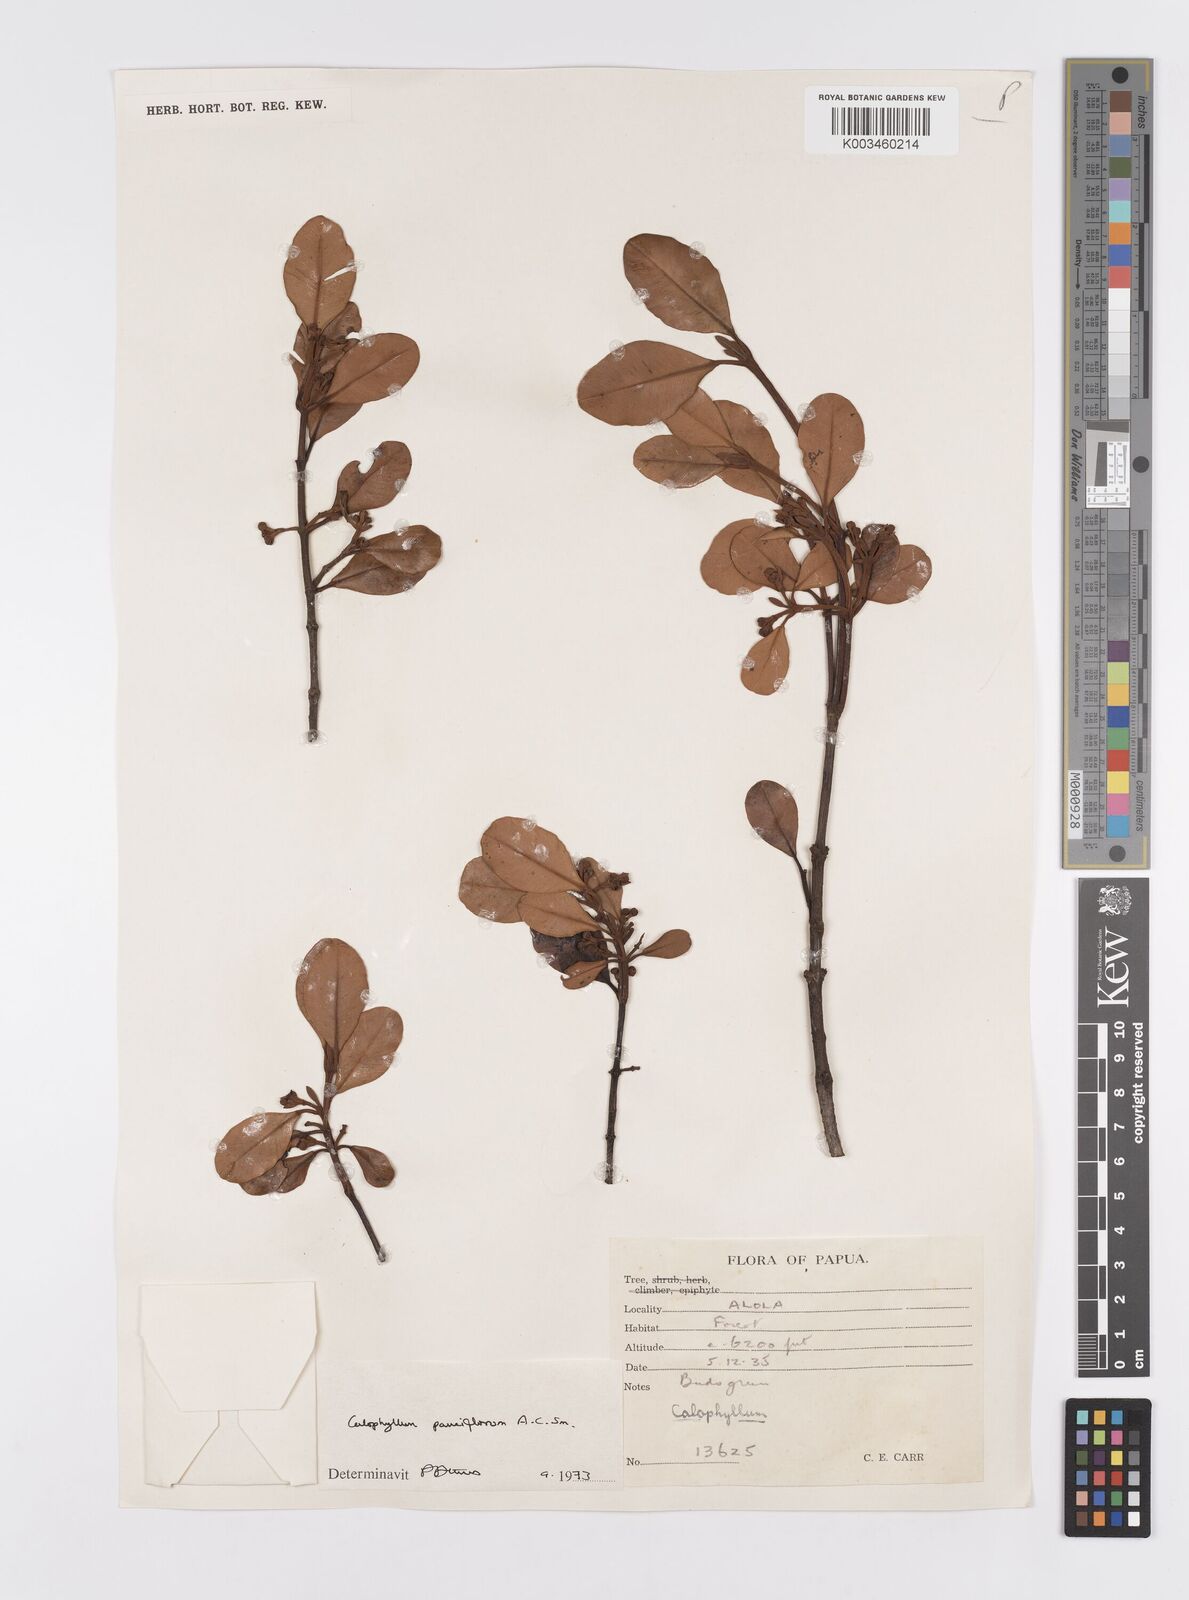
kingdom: Plantae
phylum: Tracheophyta
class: Magnoliopsida
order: Malpighiales
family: Calophyllaceae
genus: Calophyllum
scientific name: Calophyllum parviflorum
